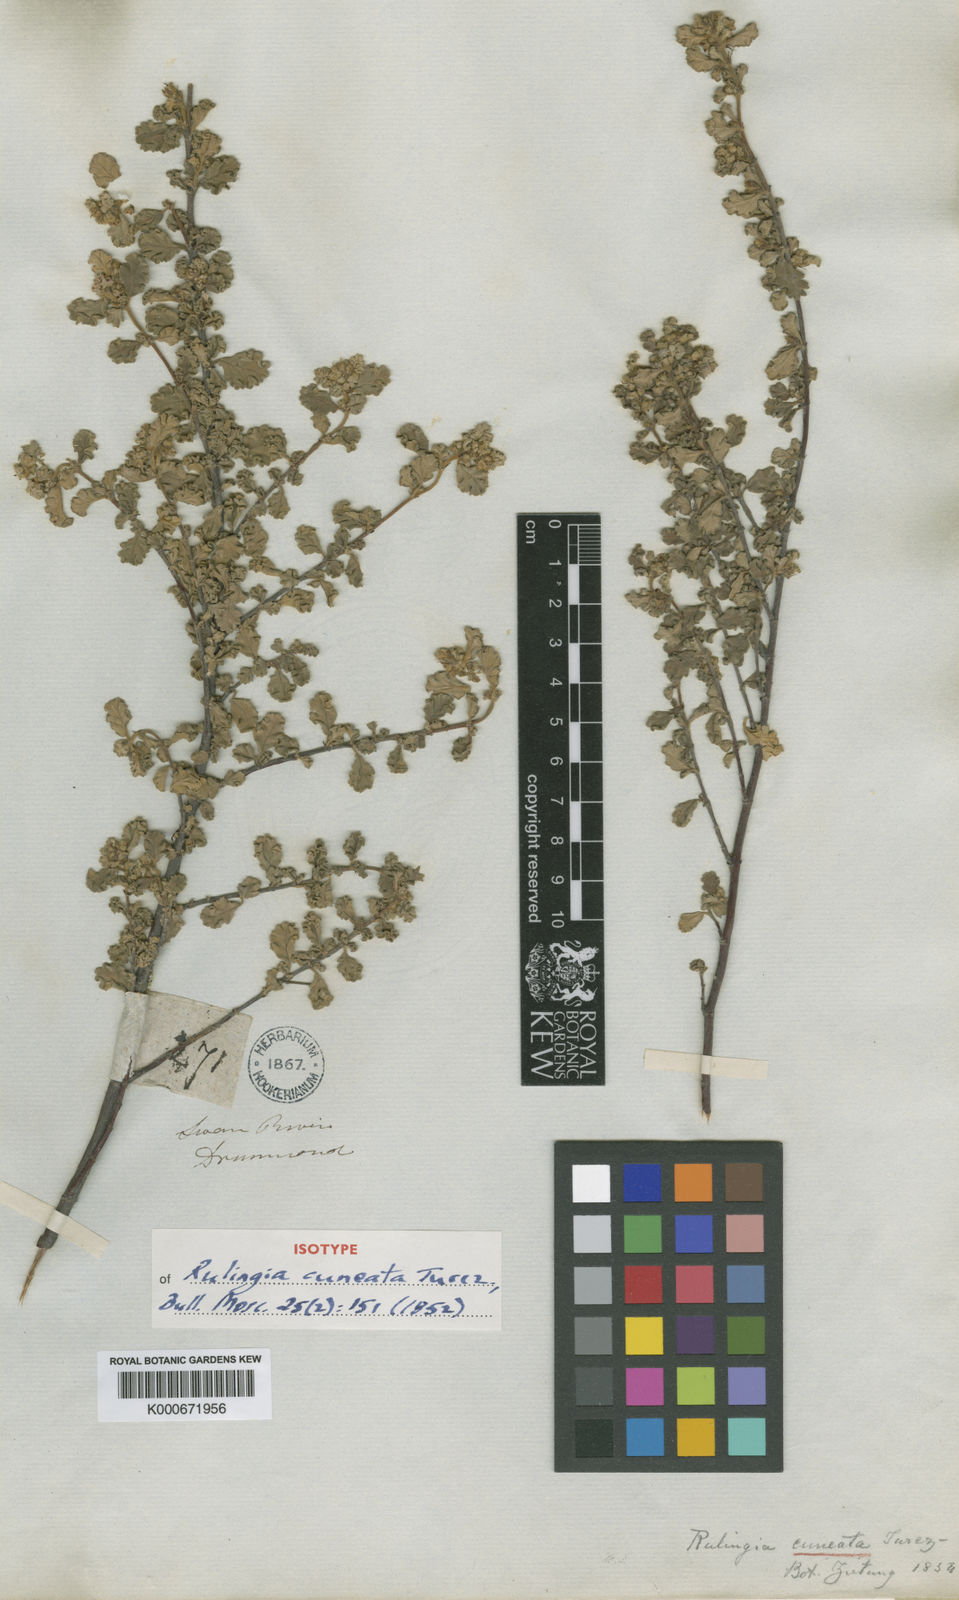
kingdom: Plantae
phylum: Tracheophyta
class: Magnoliopsida
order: Malvales
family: Malvaceae
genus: Androcalva
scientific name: Androcalva cuneata
